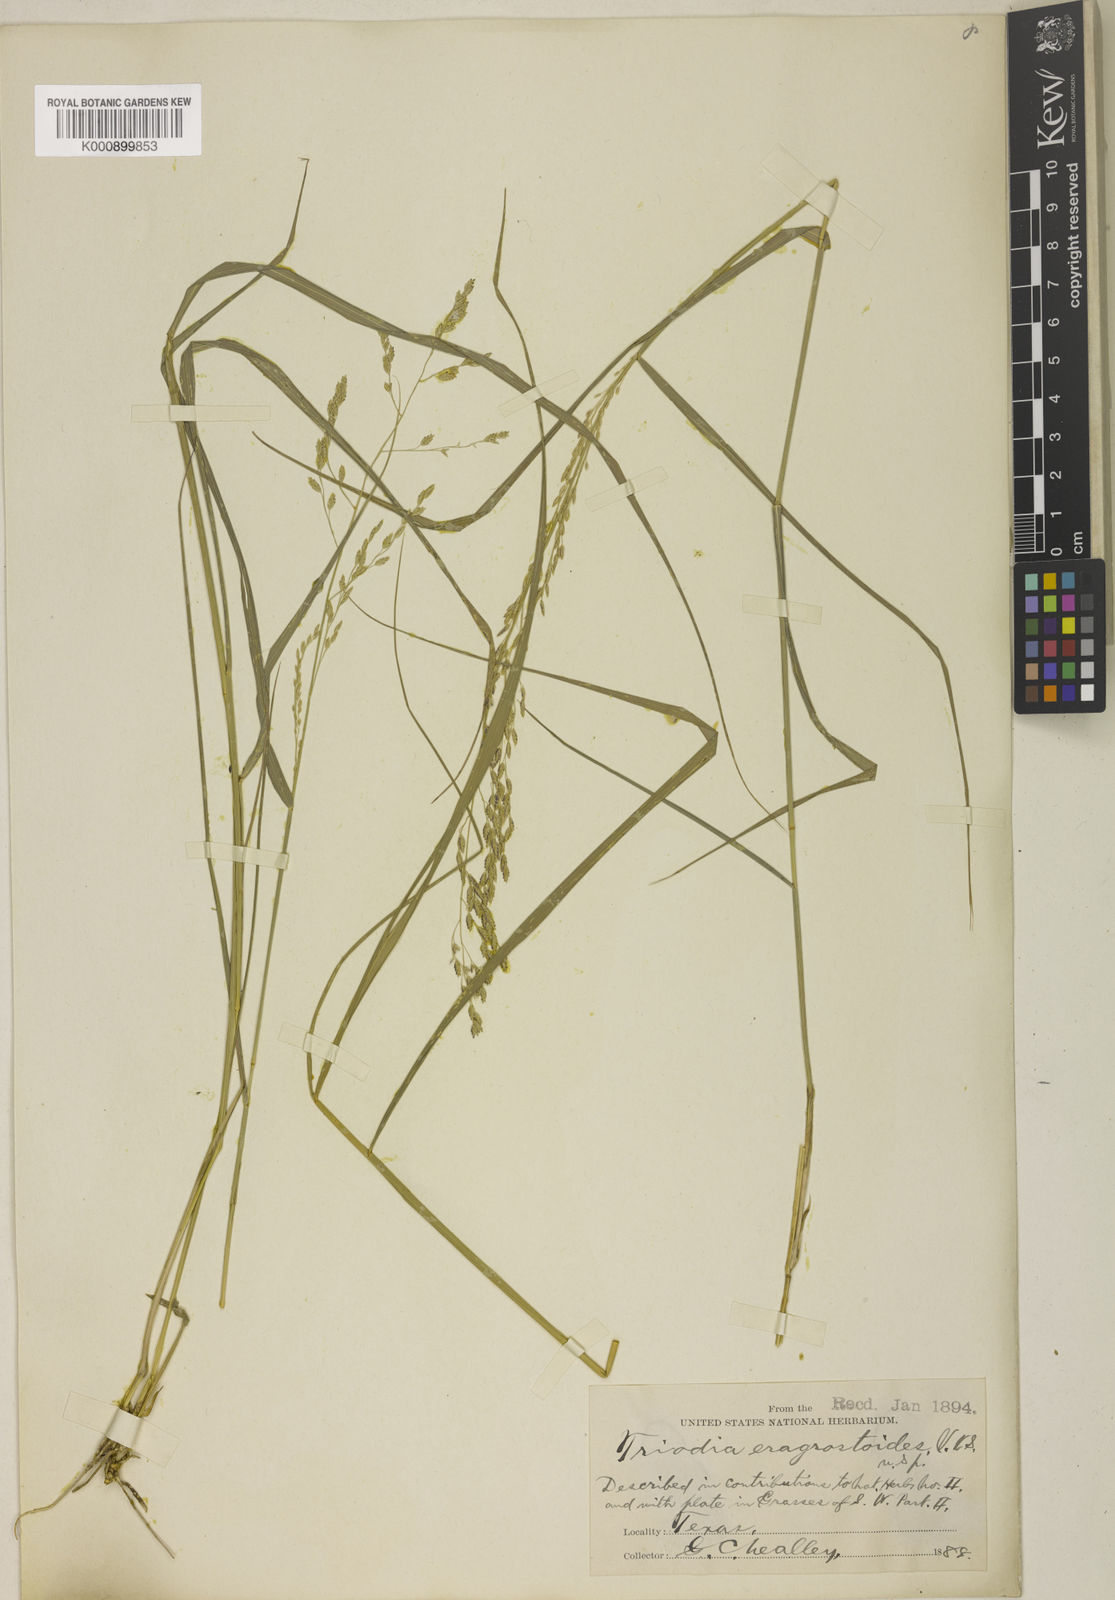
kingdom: Plantae
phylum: Tracheophyta
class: Liliopsida
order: Poales
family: Poaceae
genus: Triplasiella
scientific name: Triplasiella eragrostoides
